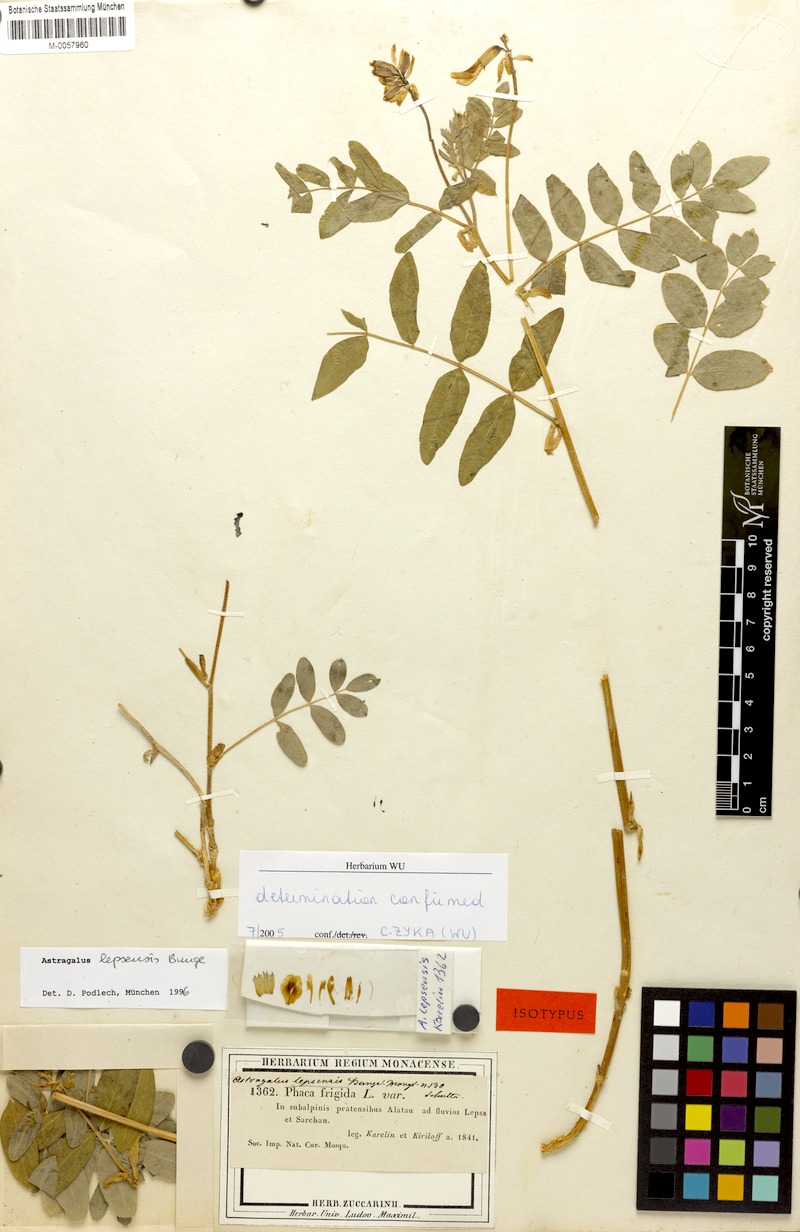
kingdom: Plantae
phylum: Tracheophyta
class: Magnoliopsida
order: Fabales
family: Fabaceae
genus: Astragalus
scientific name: Astragalus lepsensis
